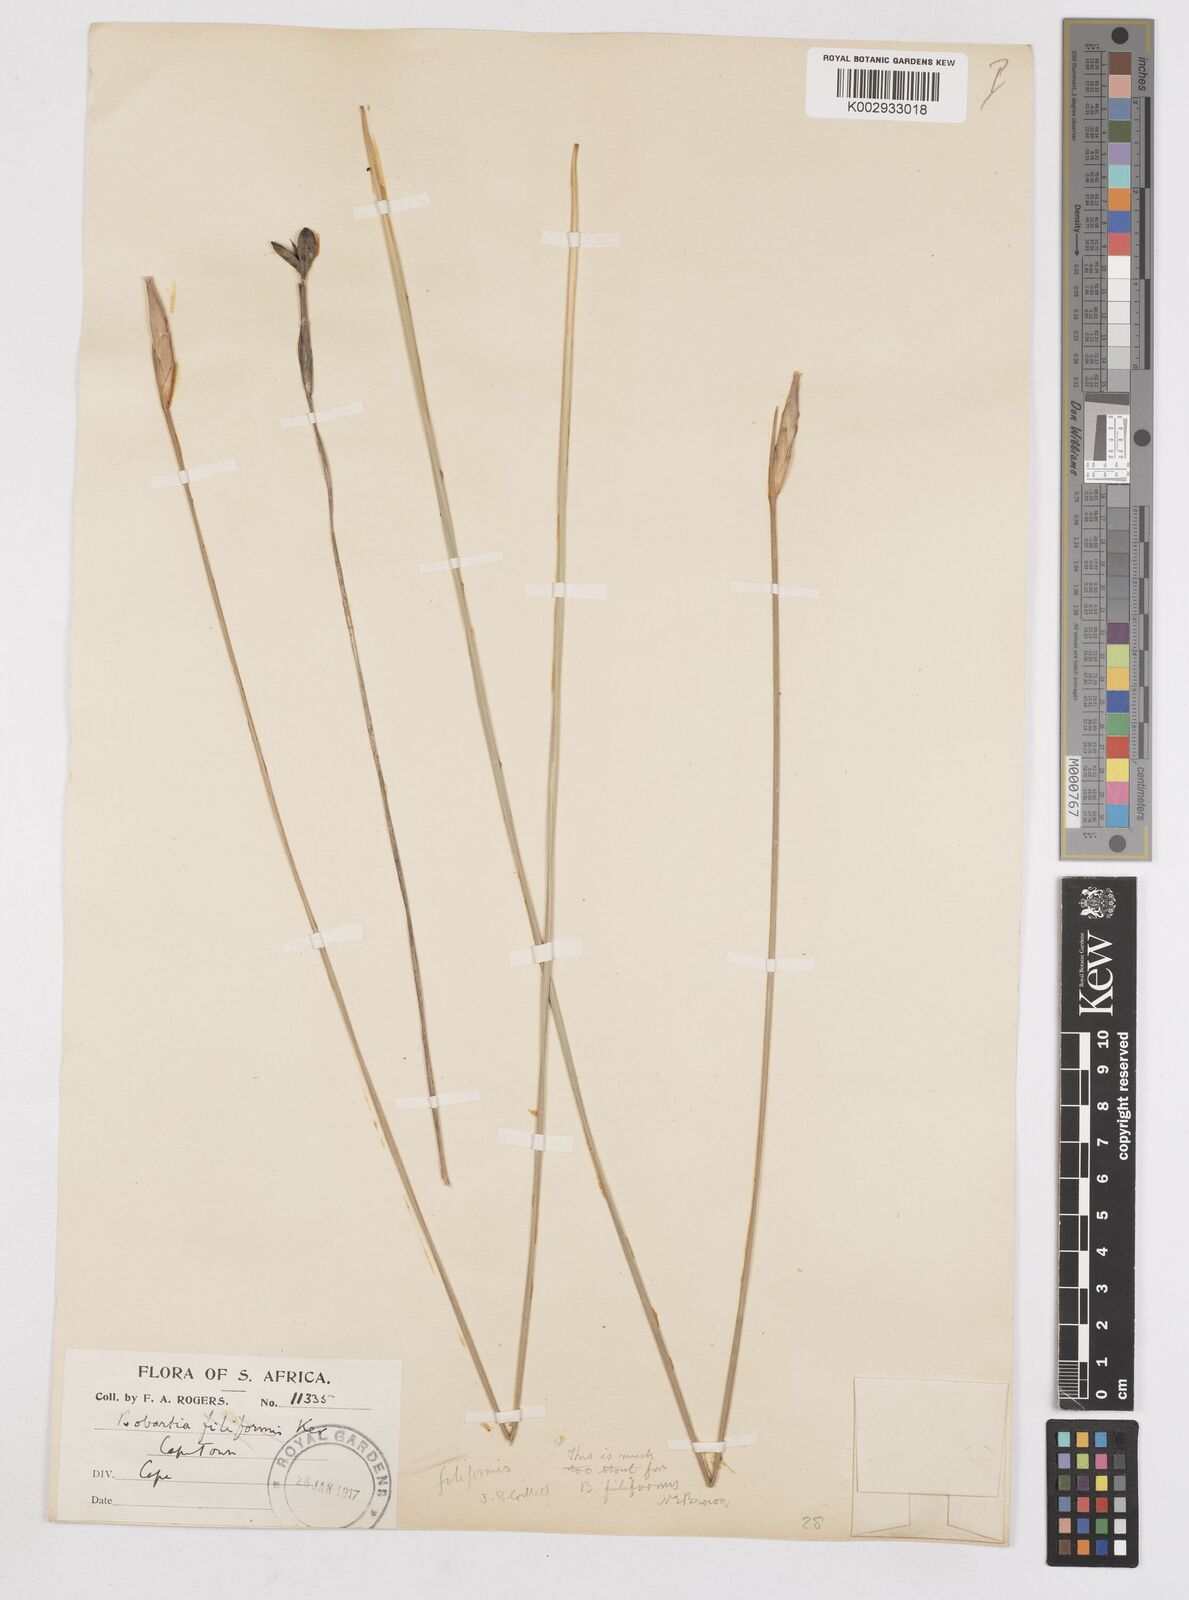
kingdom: Plantae
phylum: Tracheophyta
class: Liliopsida
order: Asparagales
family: Iridaceae
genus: Bobartia
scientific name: Bobartia filiformis
